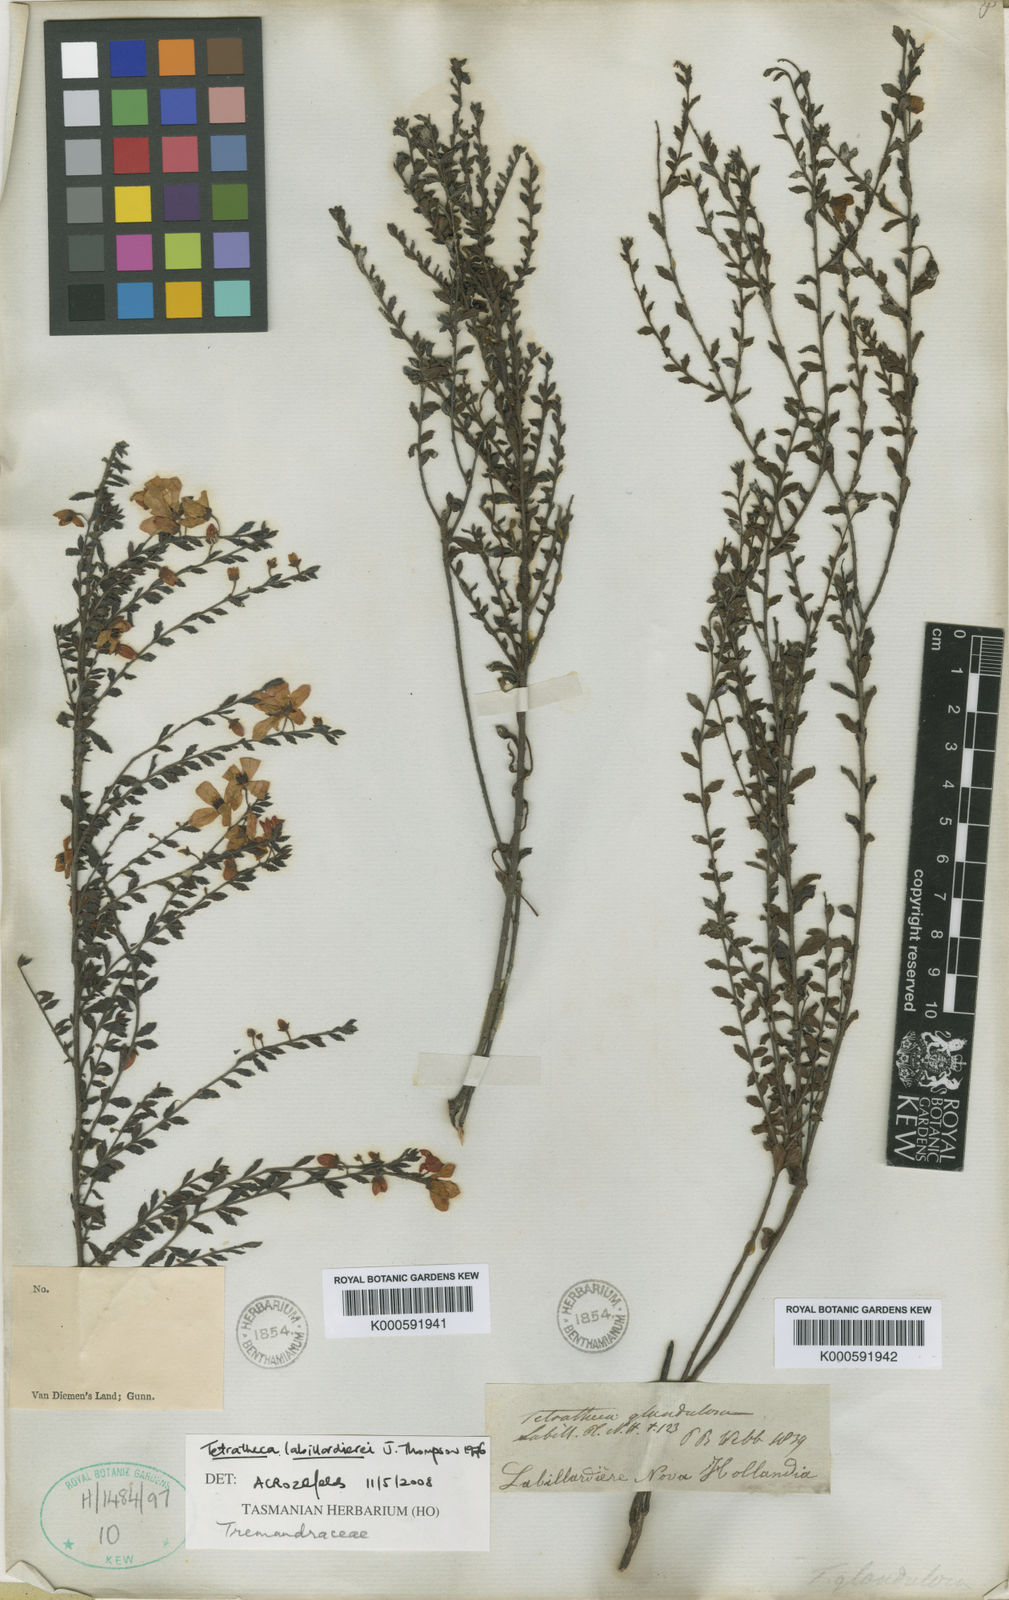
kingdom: Plantae
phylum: Tracheophyta
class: Magnoliopsida
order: Oxalidales
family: Elaeocarpaceae
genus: Tetratheca
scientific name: Tetratheca labillardierei
